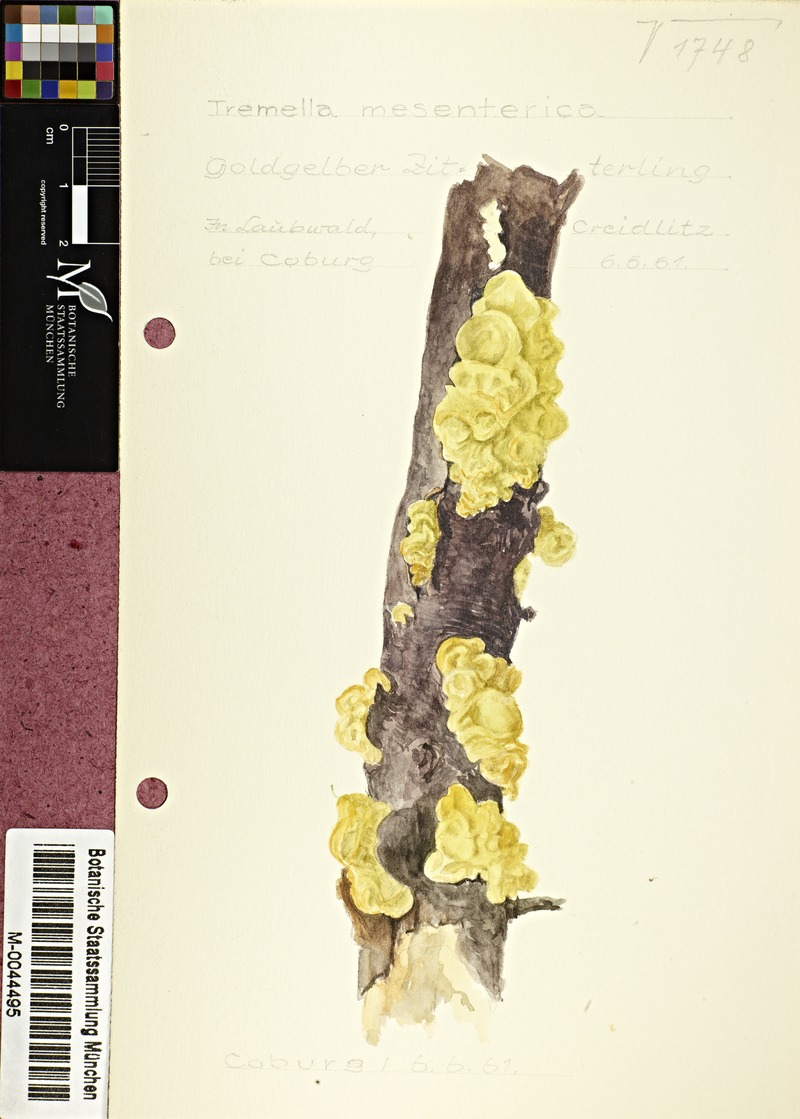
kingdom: Fungi
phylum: Basidiomycota
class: Tremellomycetes
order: Tremellales
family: Tremellaceae
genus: Tremella
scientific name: Tremella mesenterica
